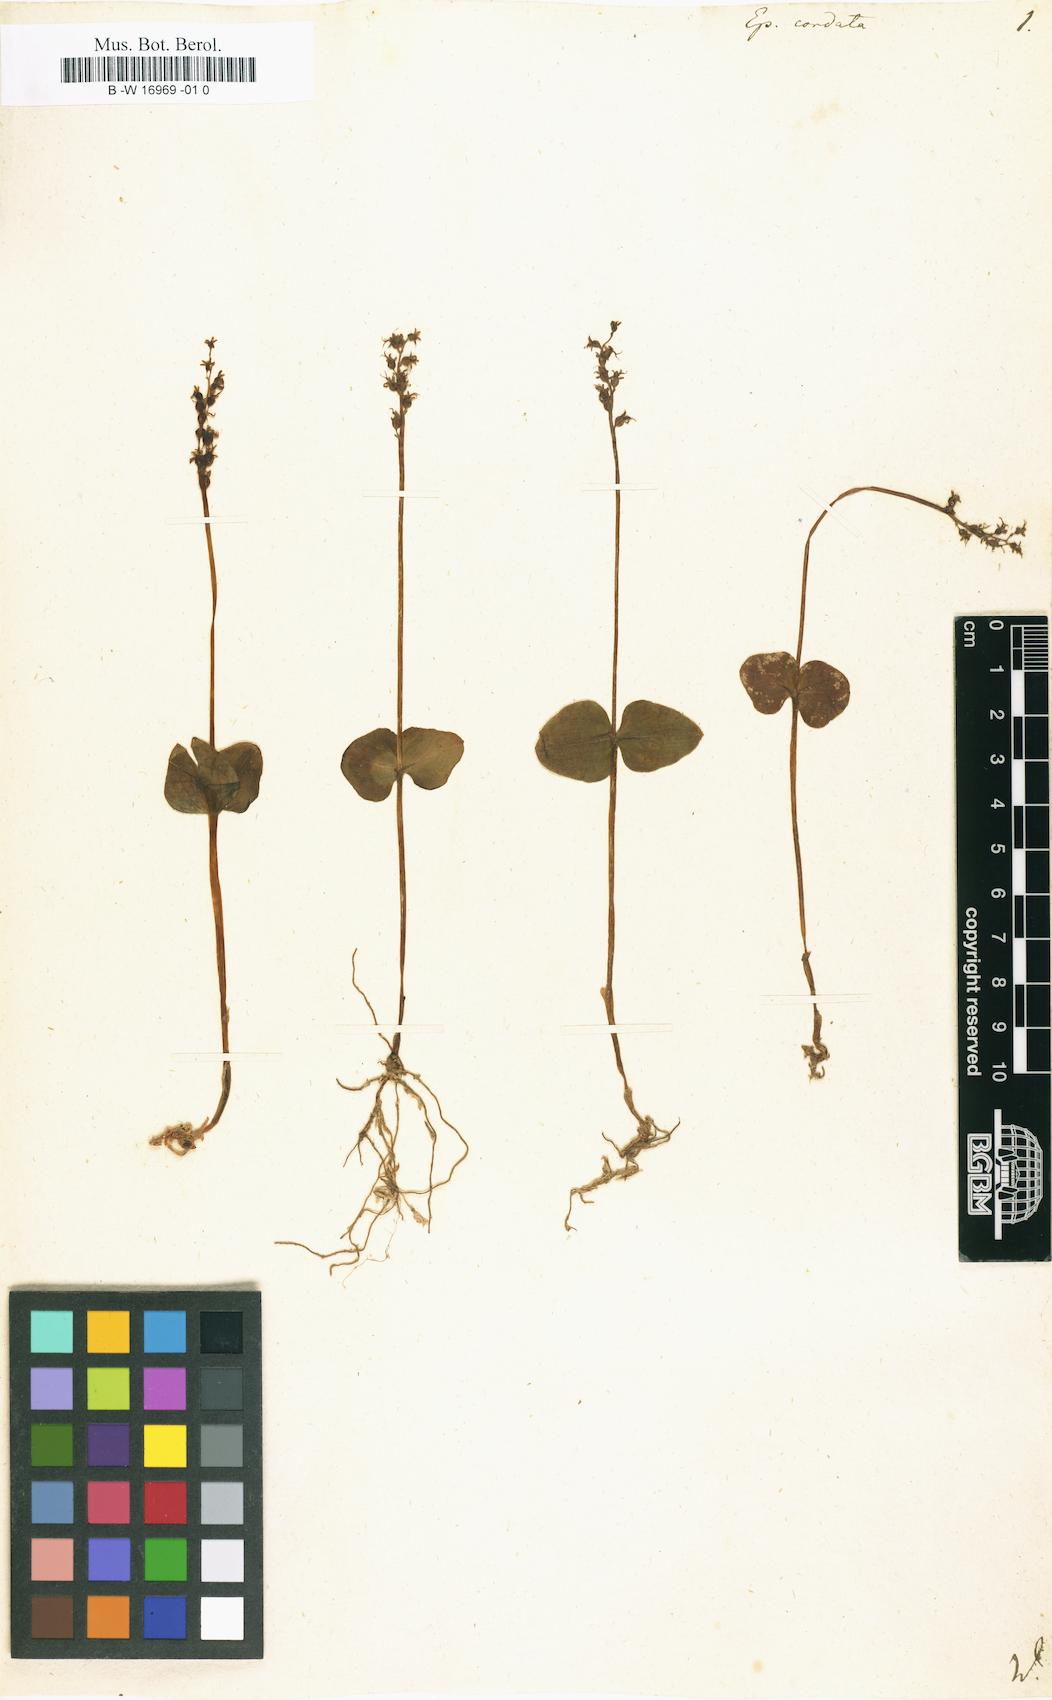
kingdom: Plantae
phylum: Tracheophyta
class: Liliopsida
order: Asparagales
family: Orchidaceae
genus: Neottia
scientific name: Neottia cordata
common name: Lesser twayblade
